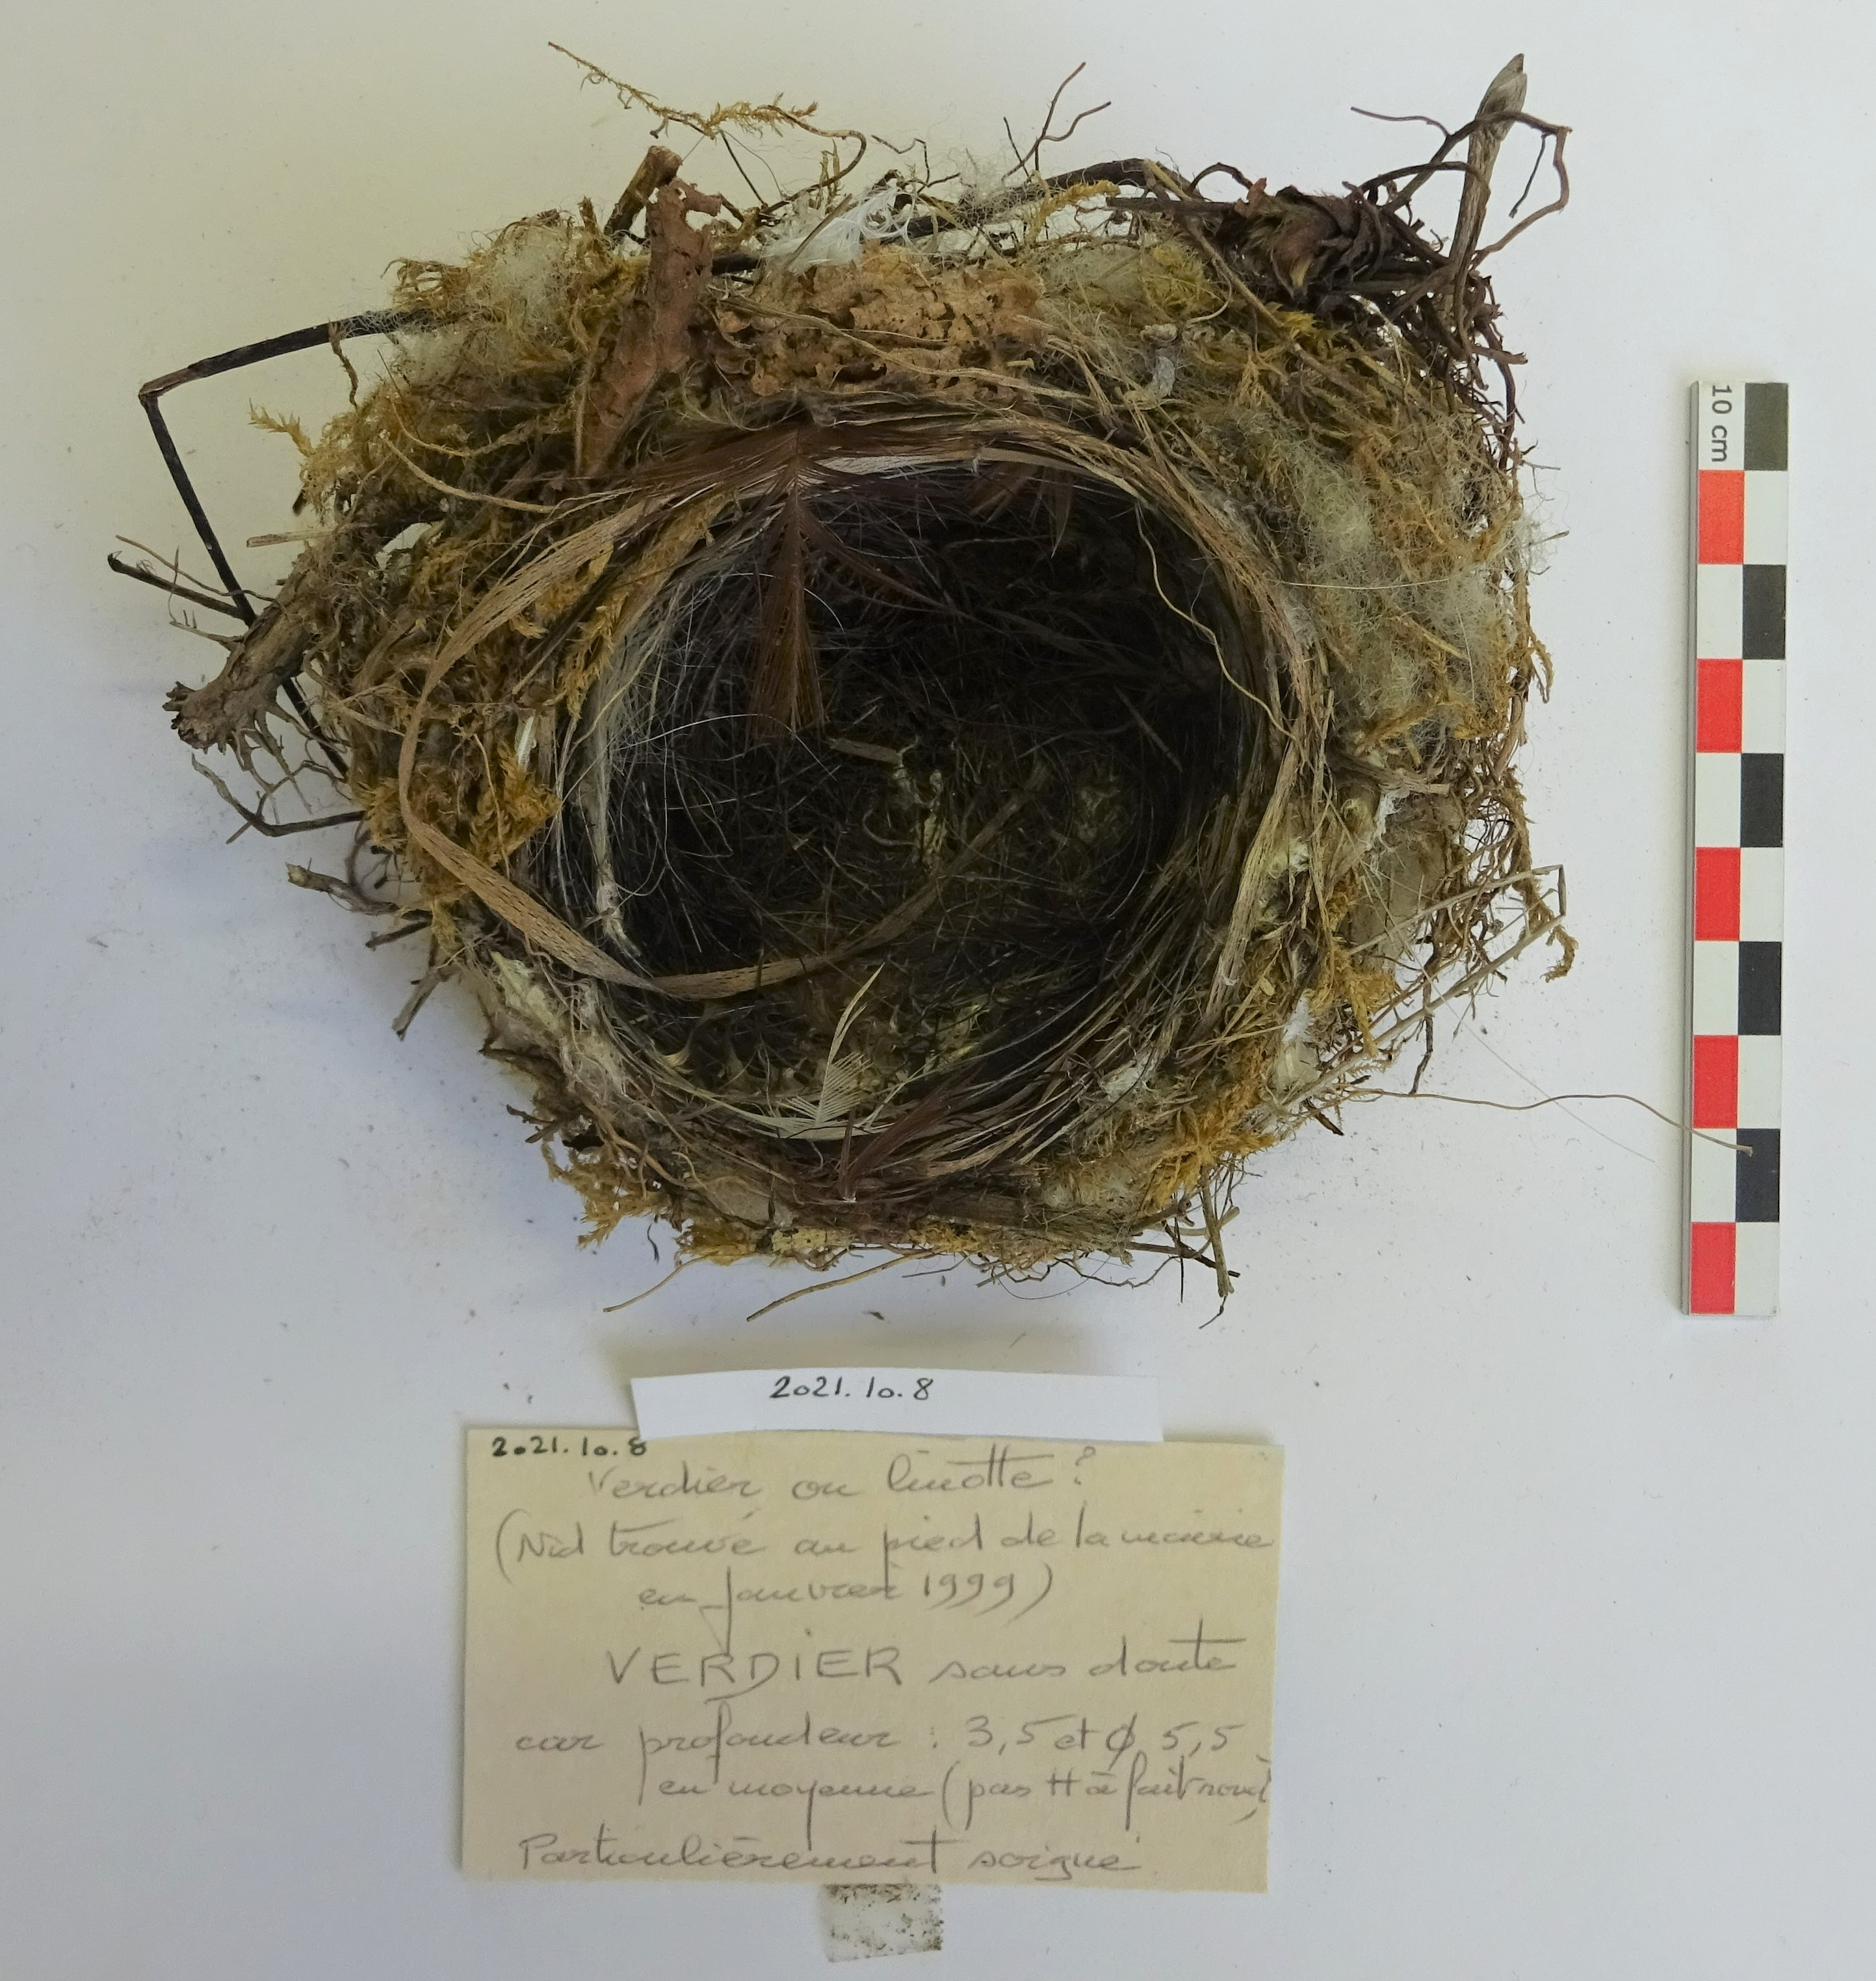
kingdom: Plantae
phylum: Tracheophyta
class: Liliopsida
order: Poales
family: Poaceae
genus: Chloris
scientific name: Chloris chloris
